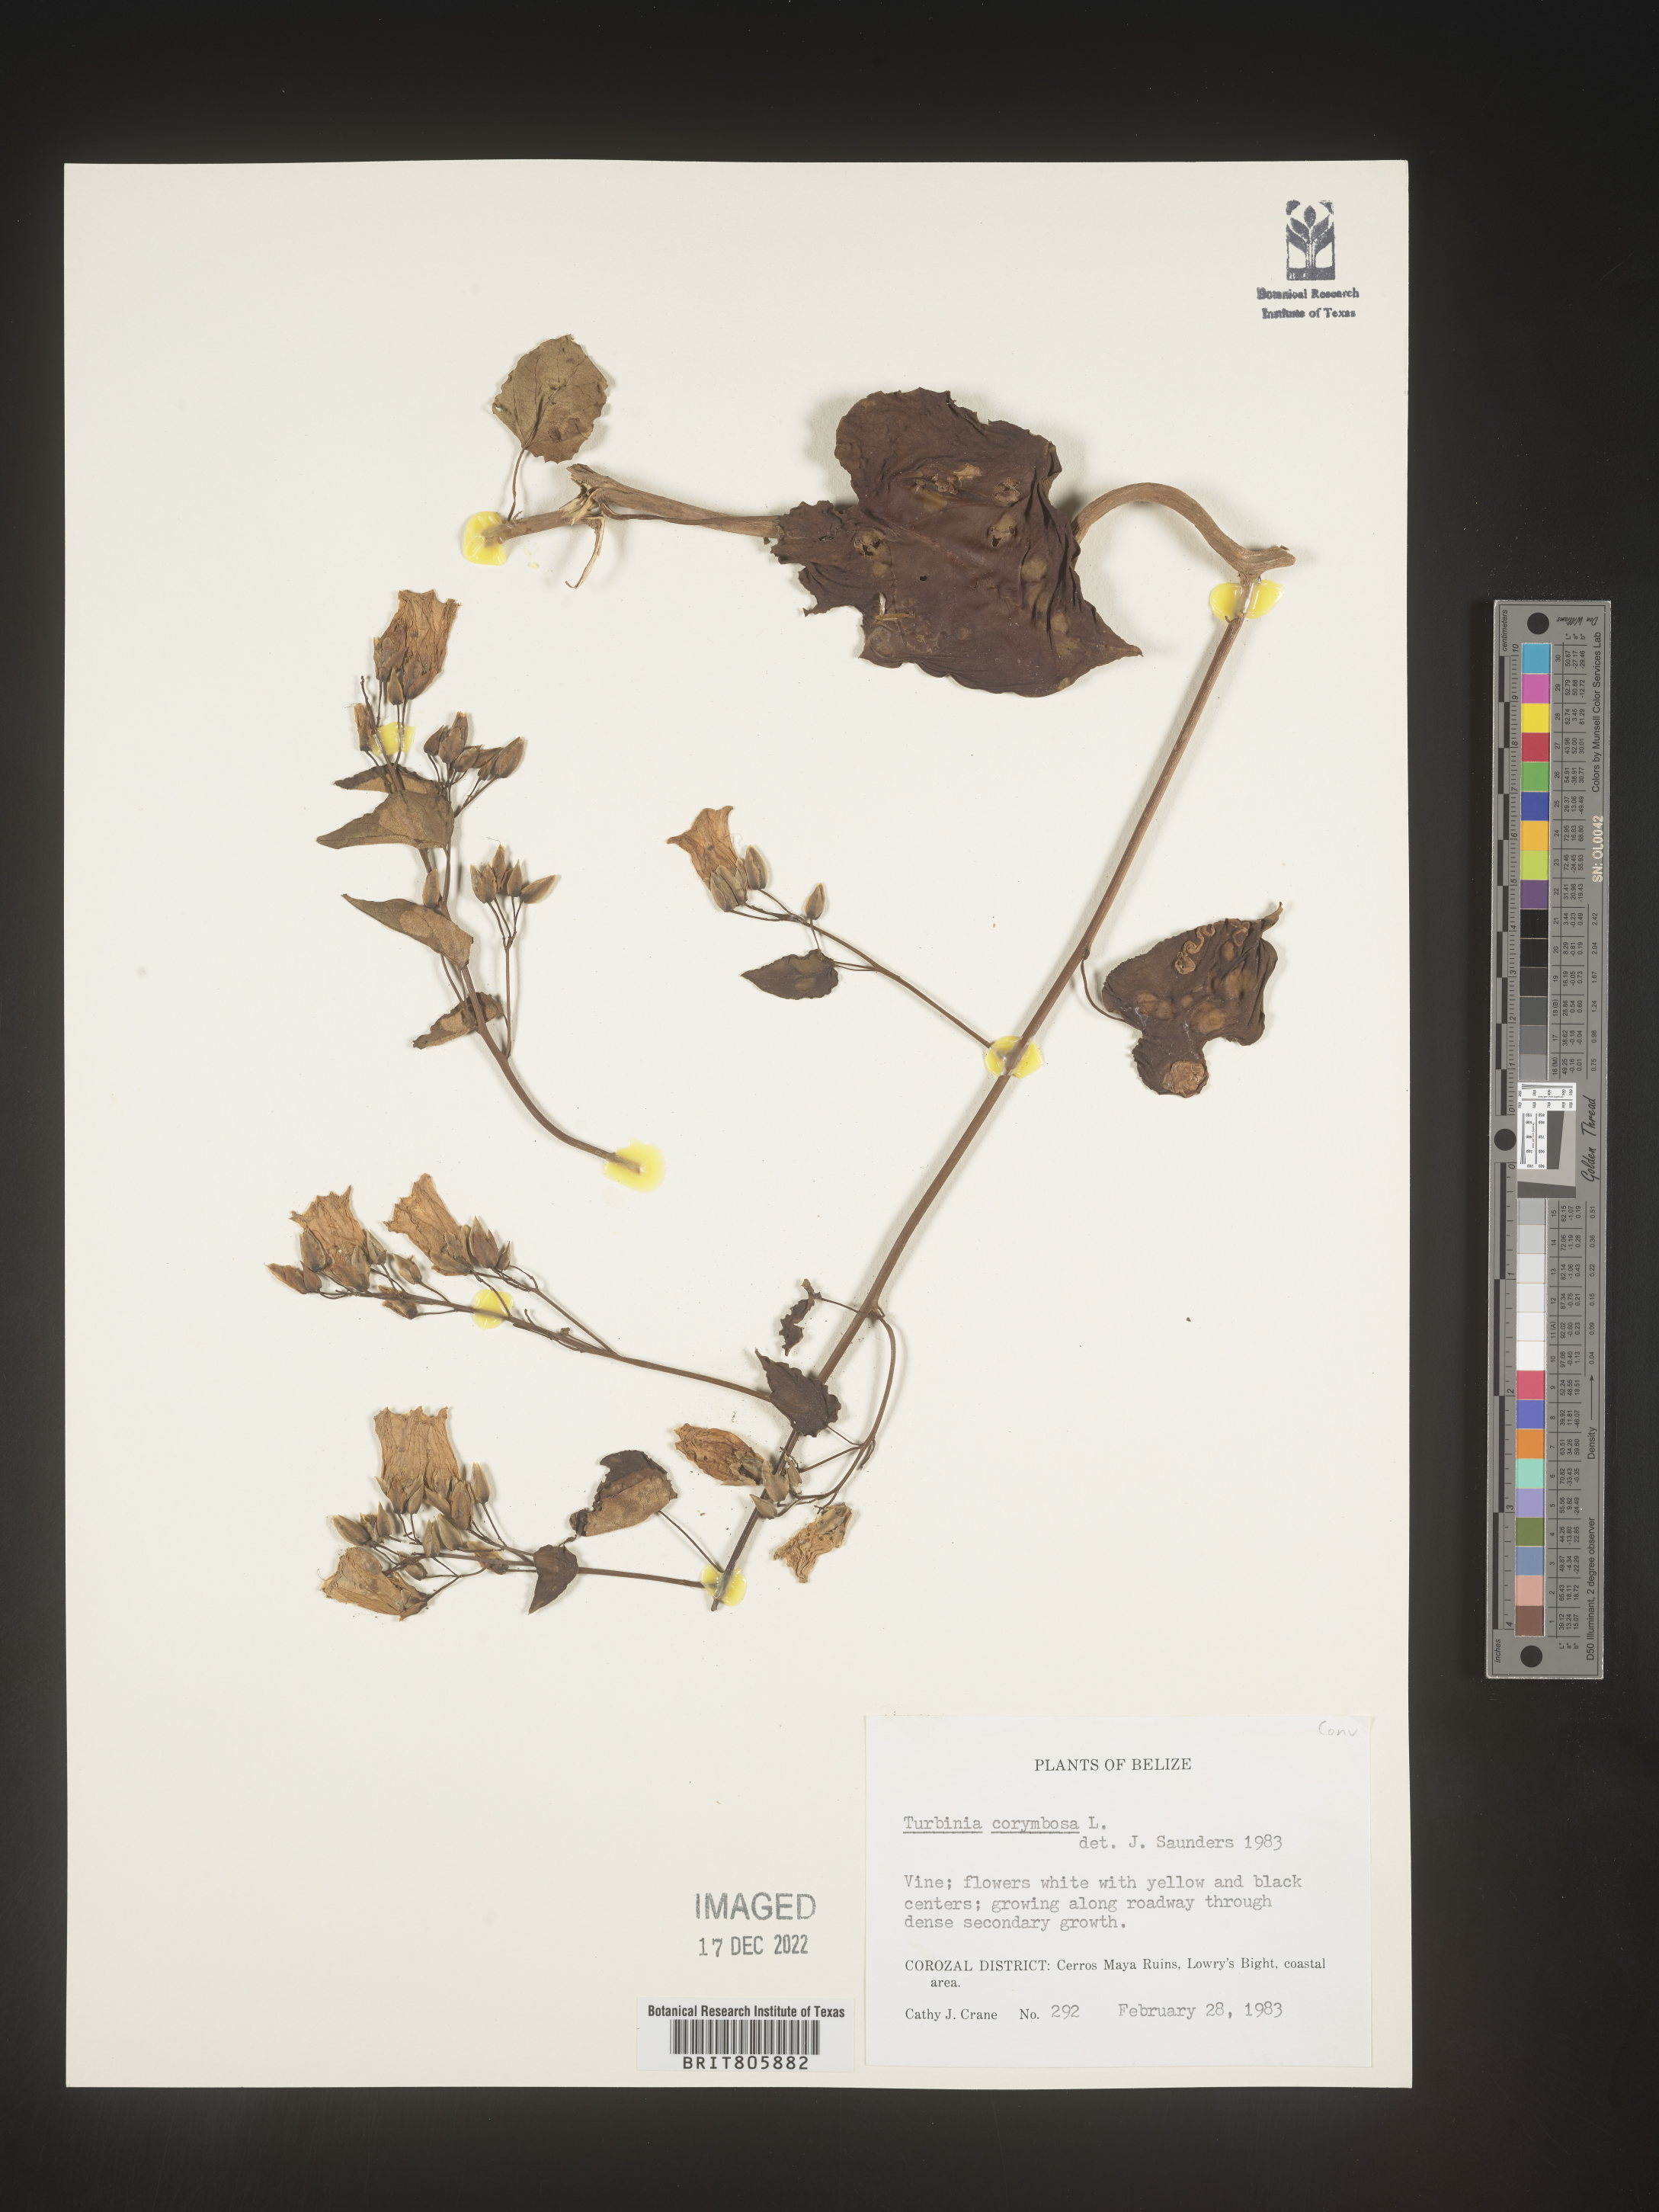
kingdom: Animalia
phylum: Mollusca
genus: Turbina
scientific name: Turbina
